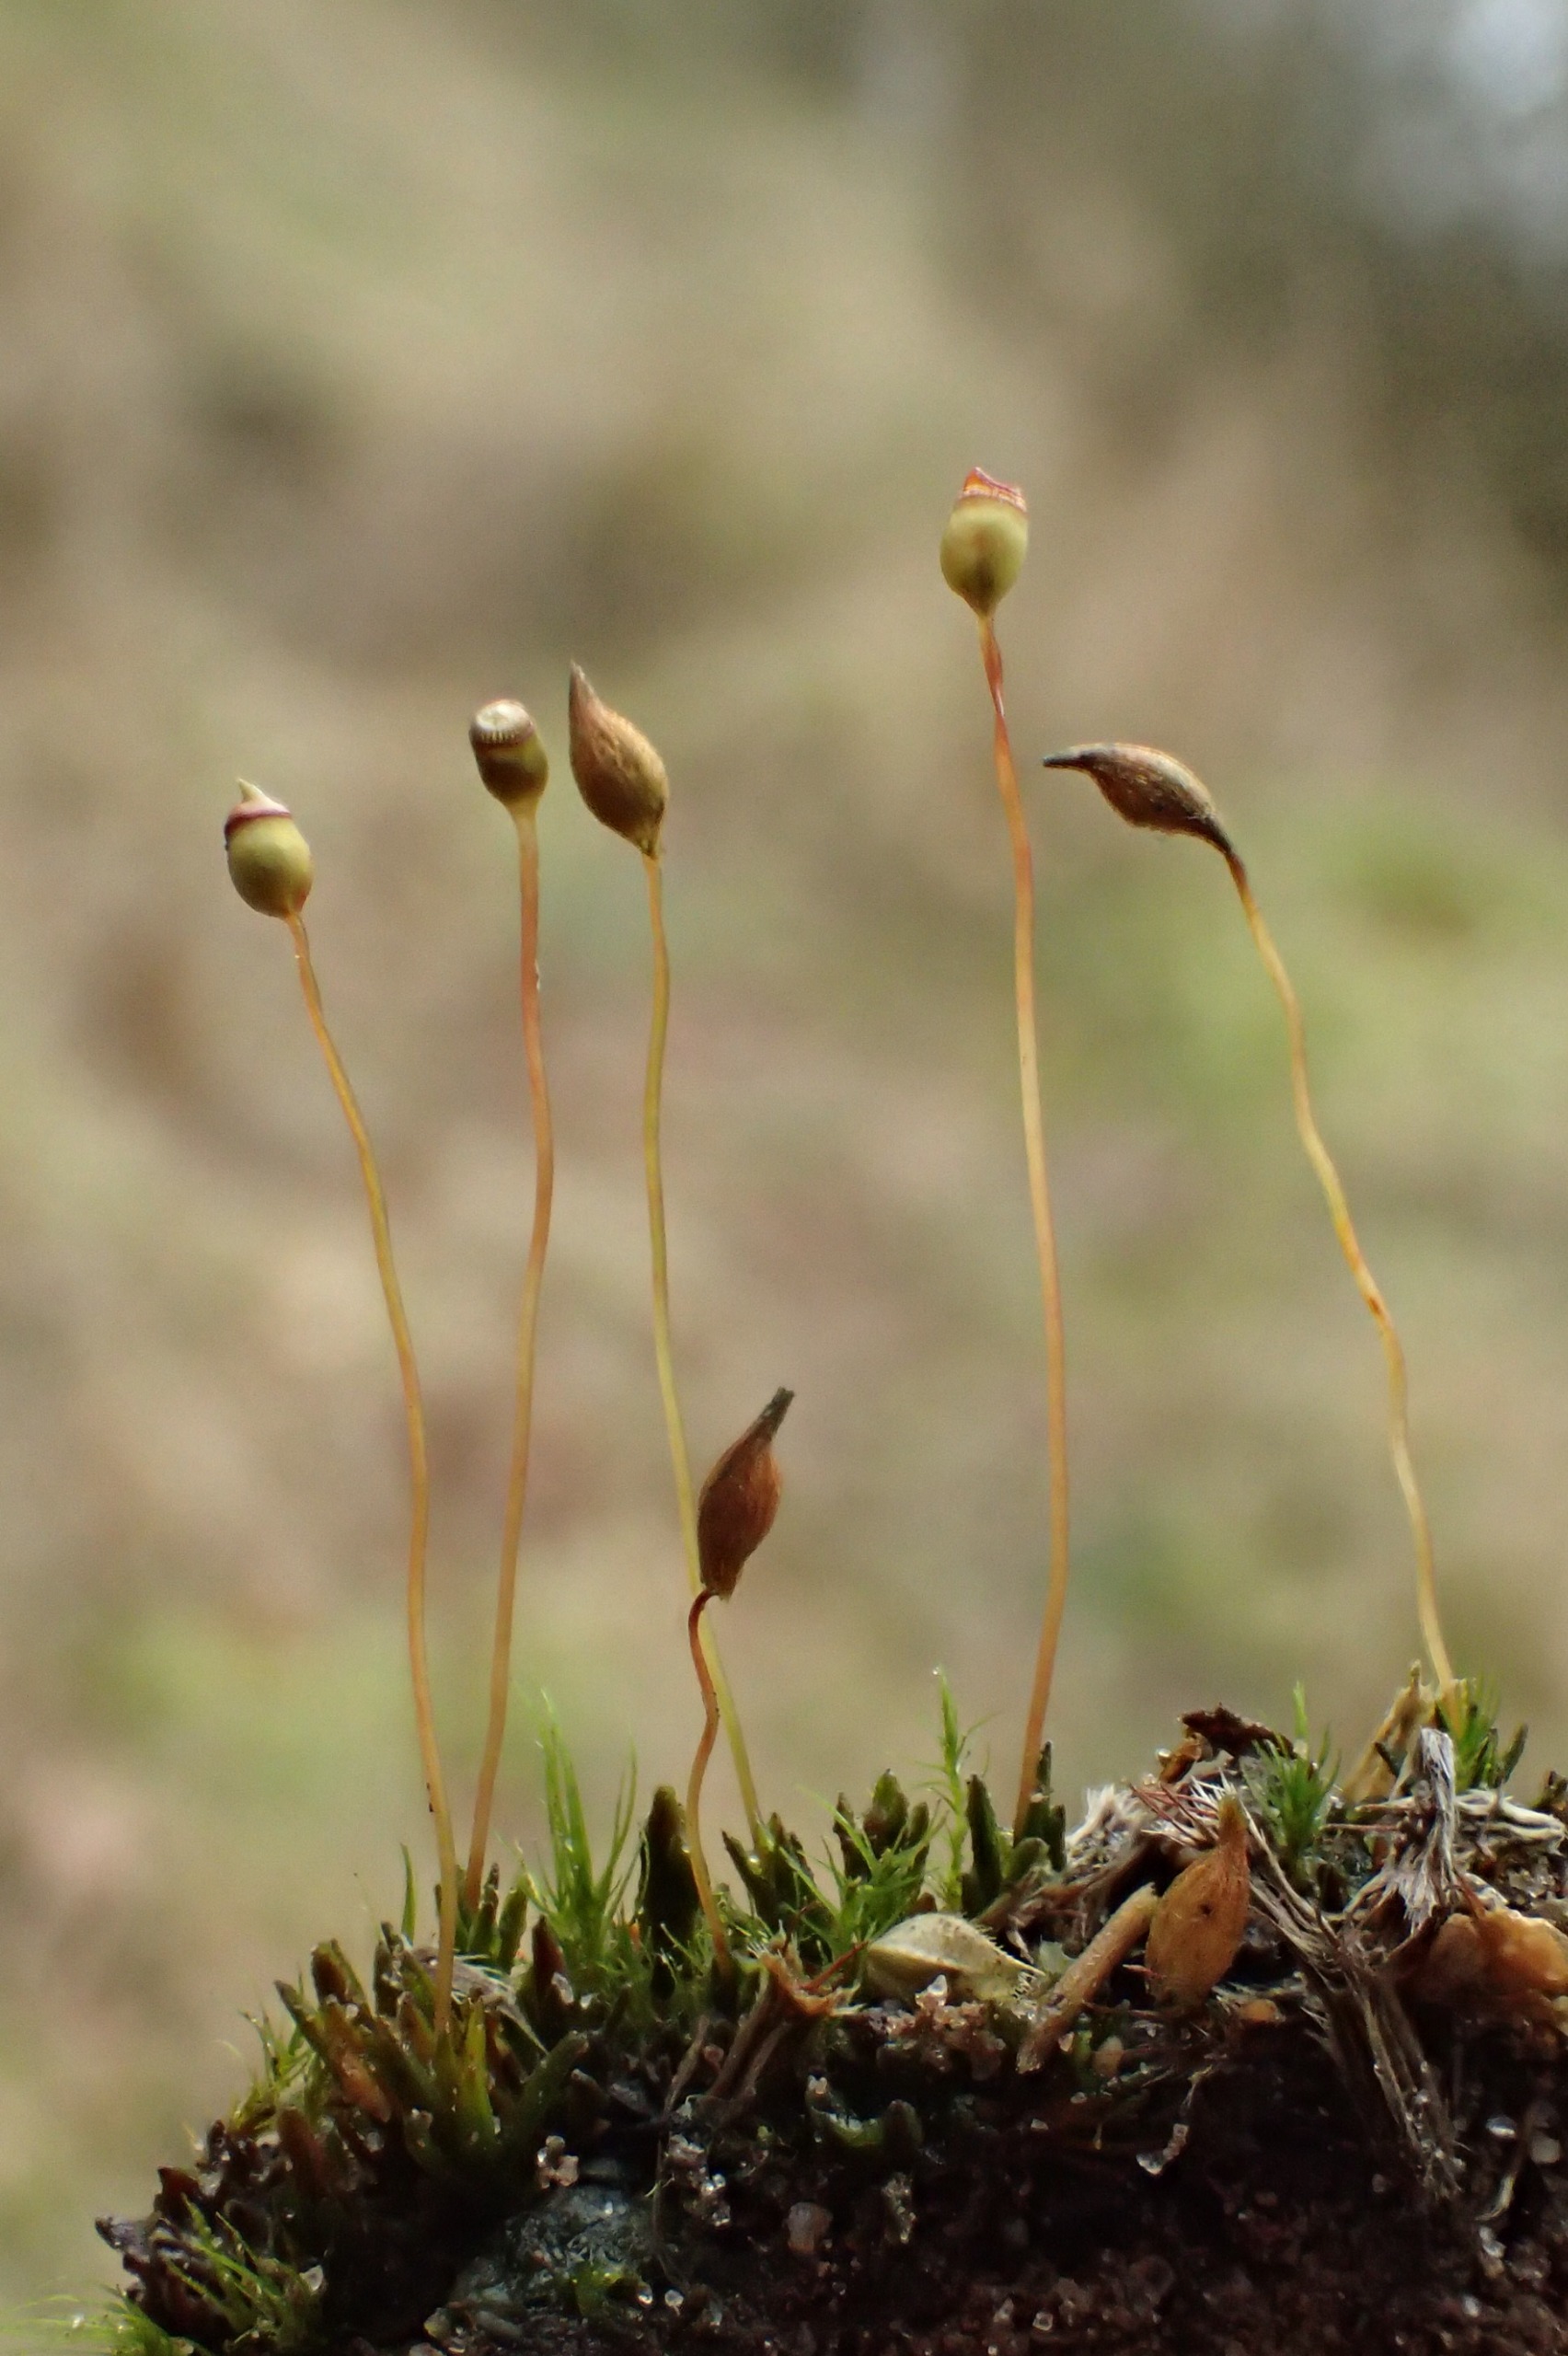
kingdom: Plantae
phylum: Bryophyta
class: Polytrichopsida
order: Polytrichales
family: Polytrichaceae
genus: Pogonatum
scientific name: Pogonatum nanum
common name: Dværg-urnekapsel
